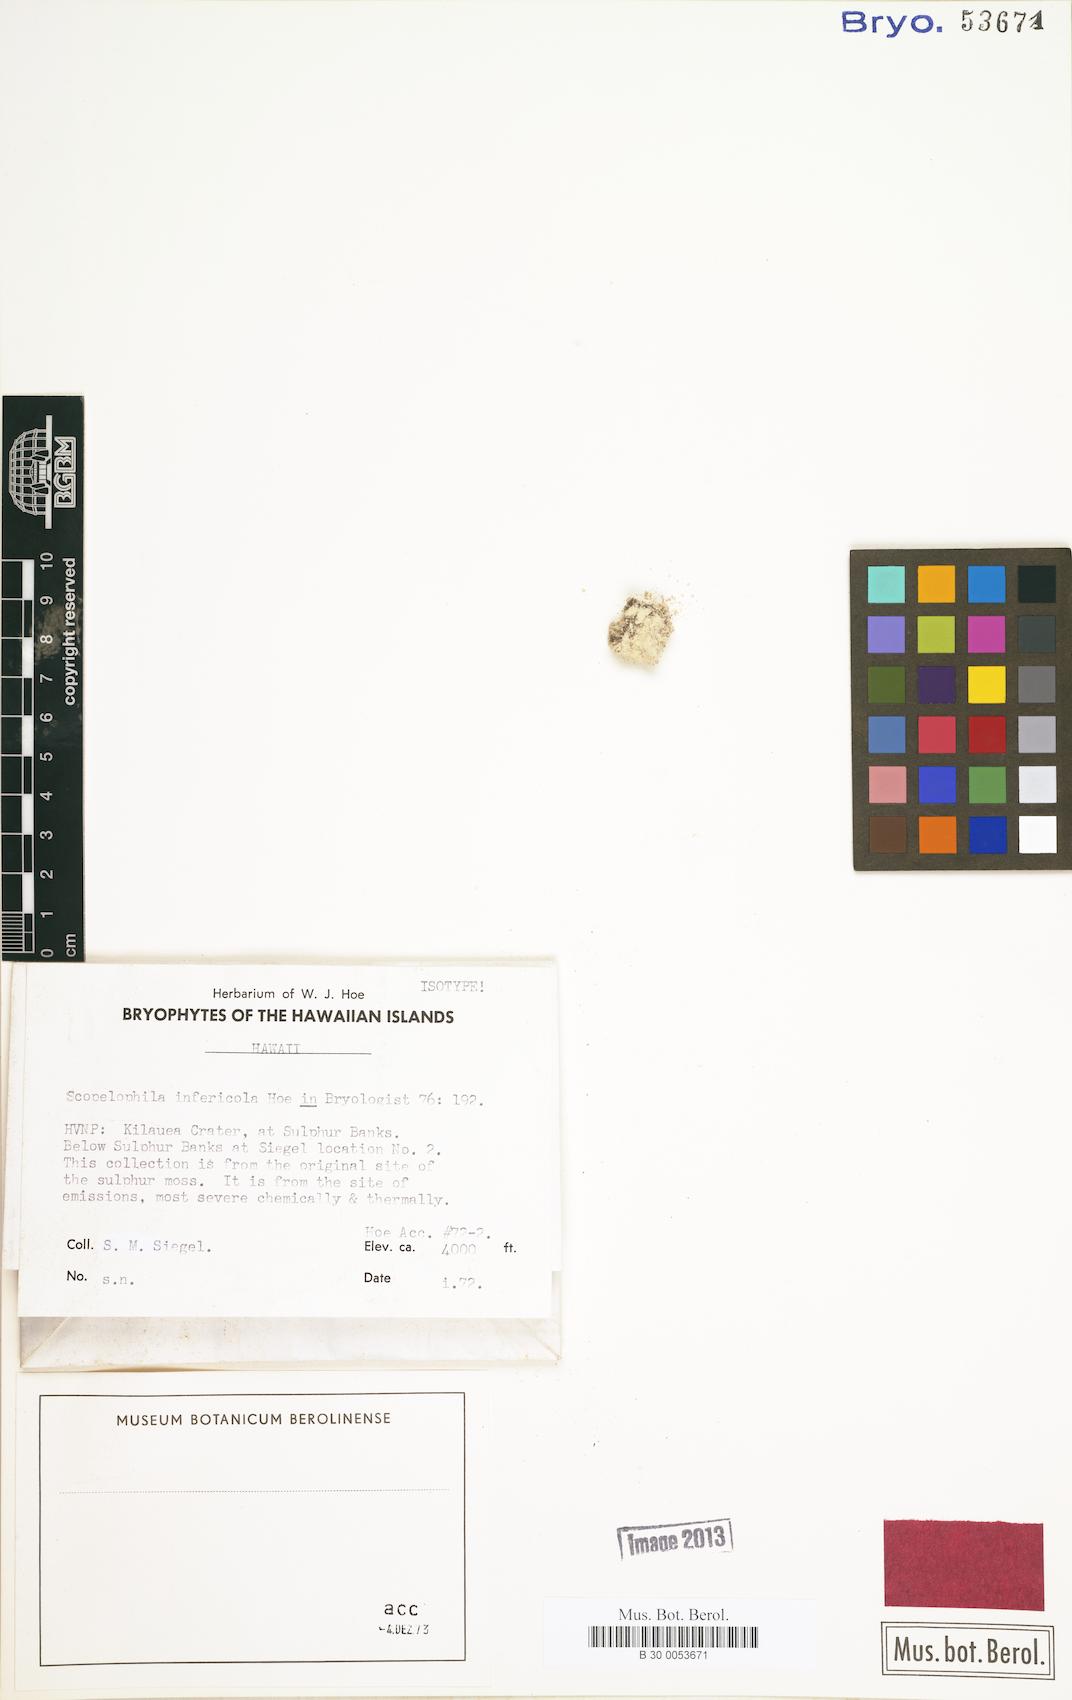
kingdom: Plantae
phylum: Bryophyta
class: Bryopsida
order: Pottiales
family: Pottiaceae
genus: Scopelophila
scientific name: Scopelophila infericola
